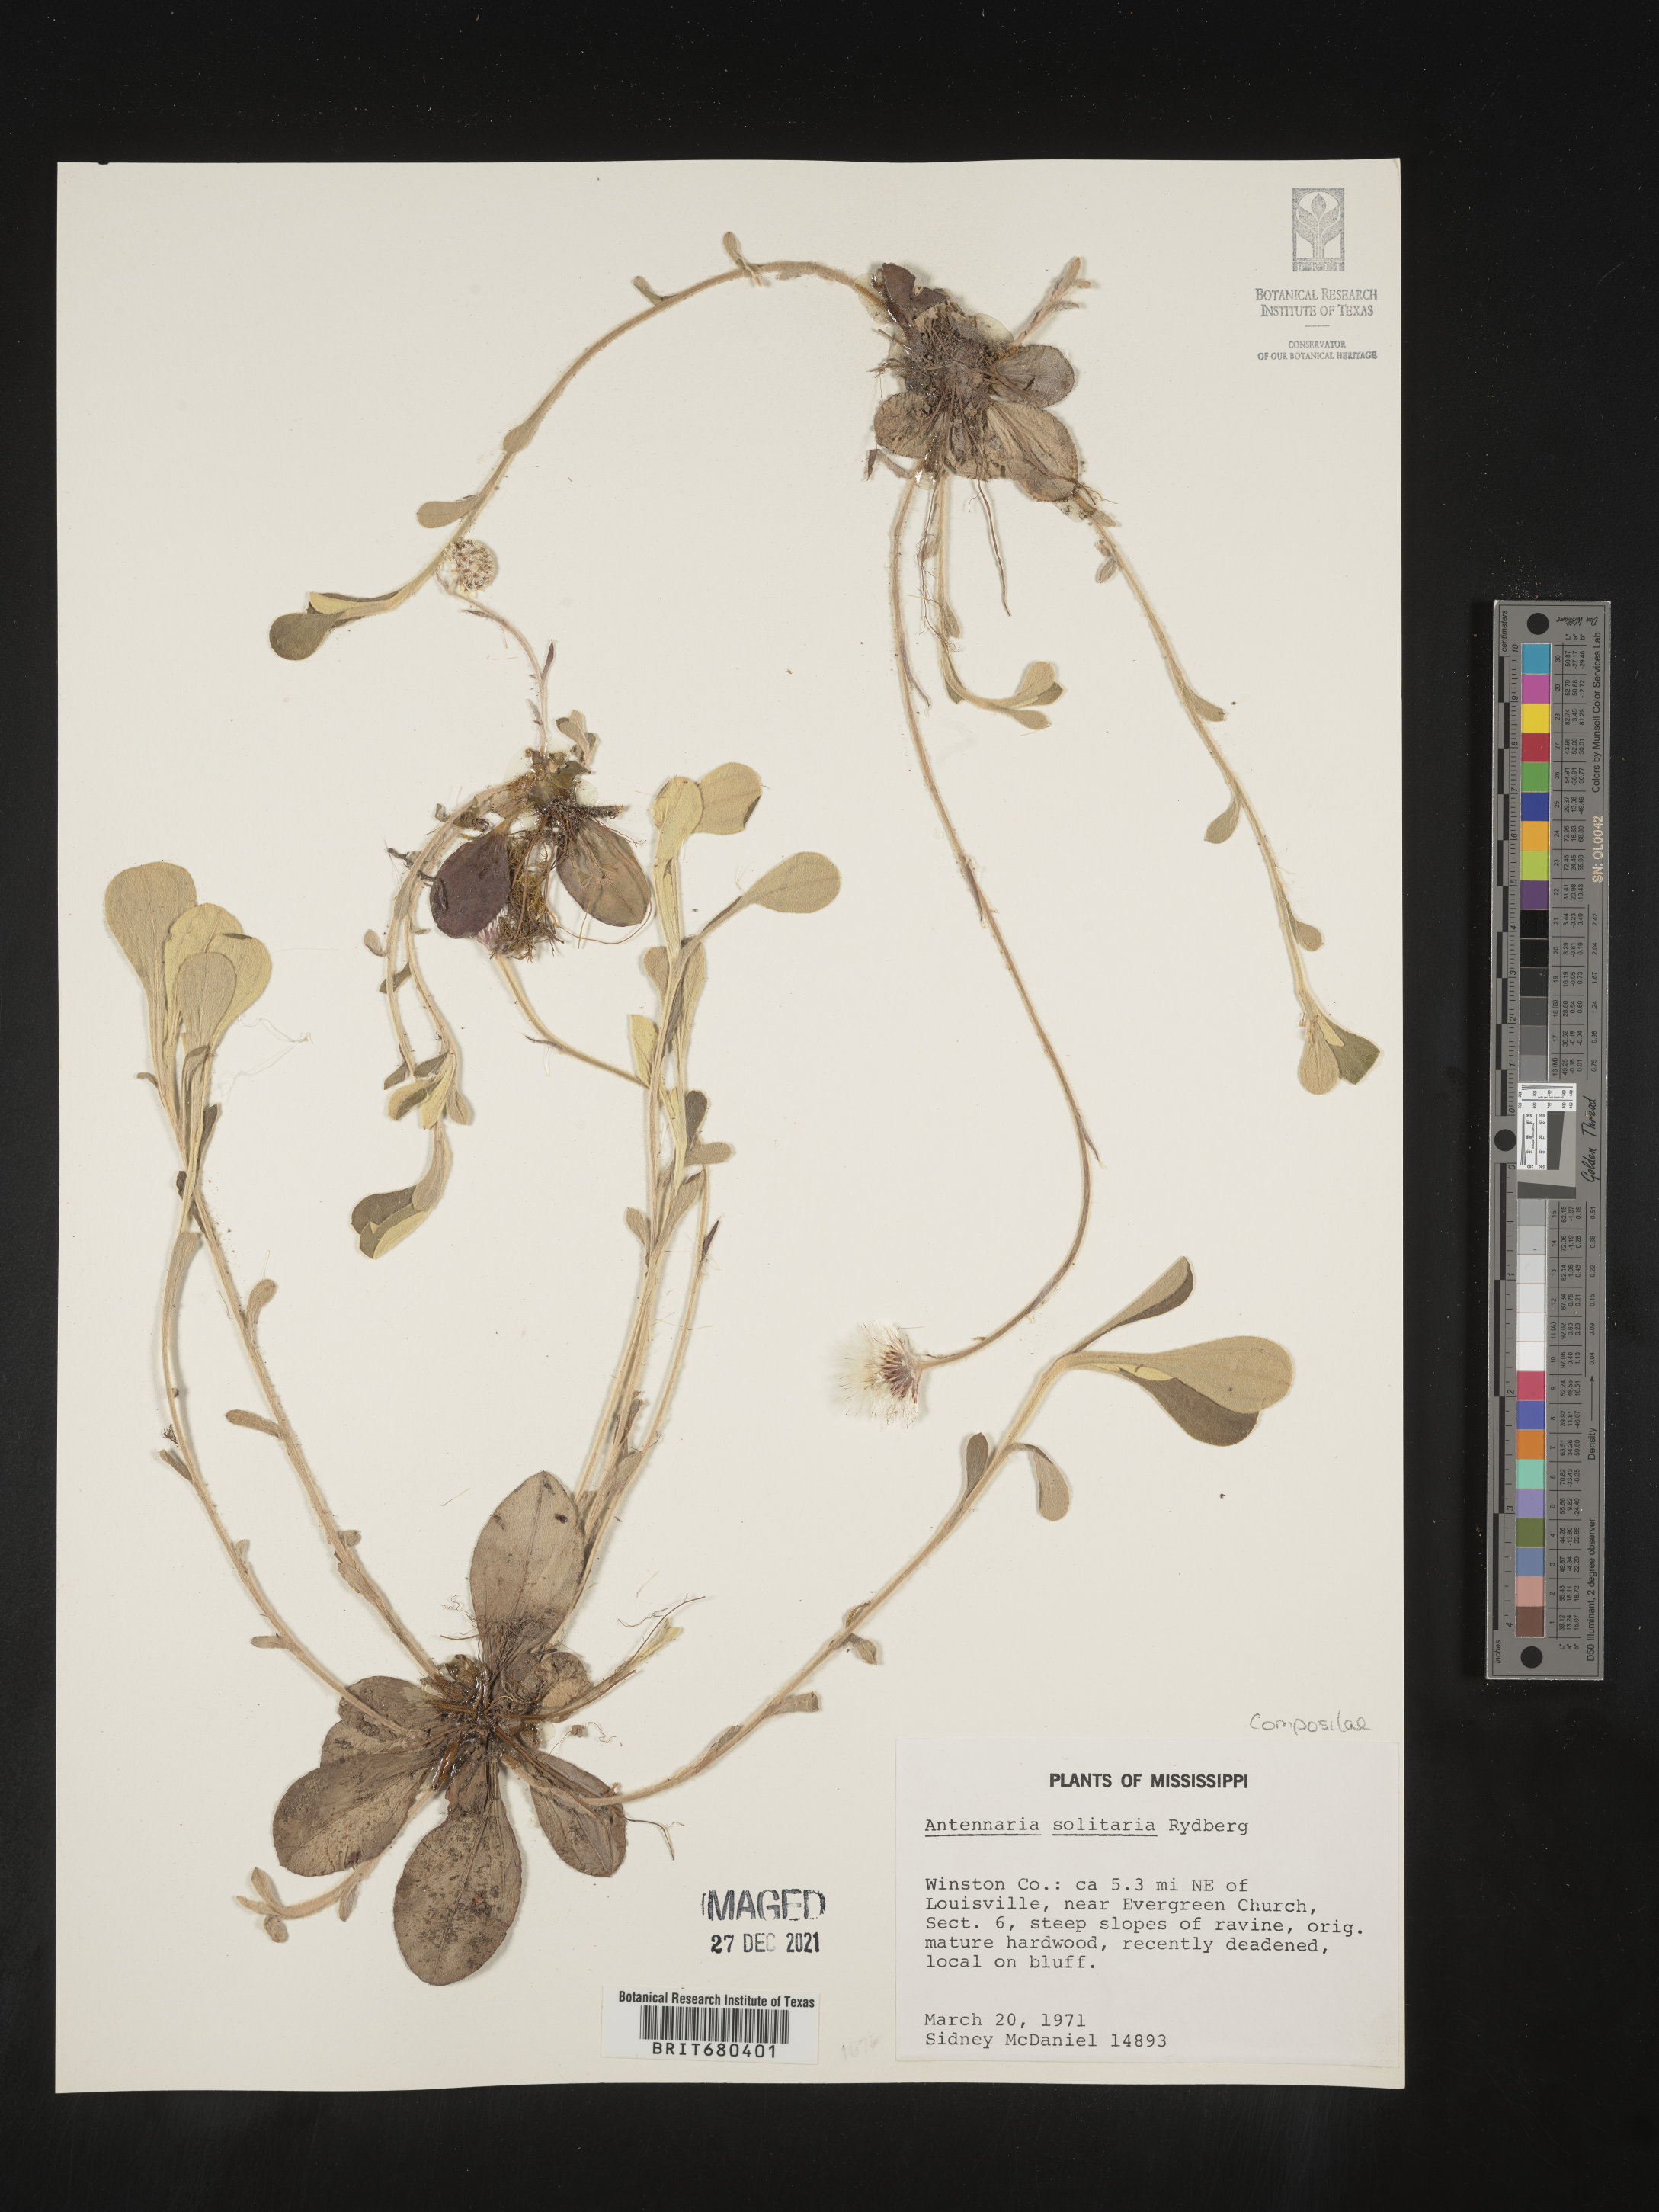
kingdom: Plantae
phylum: Tracheophyta
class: Magnoliopsida
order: Asterales
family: Asteraceae
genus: Antennaria
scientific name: Antennaria solitaria
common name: Single-head pussytoes
